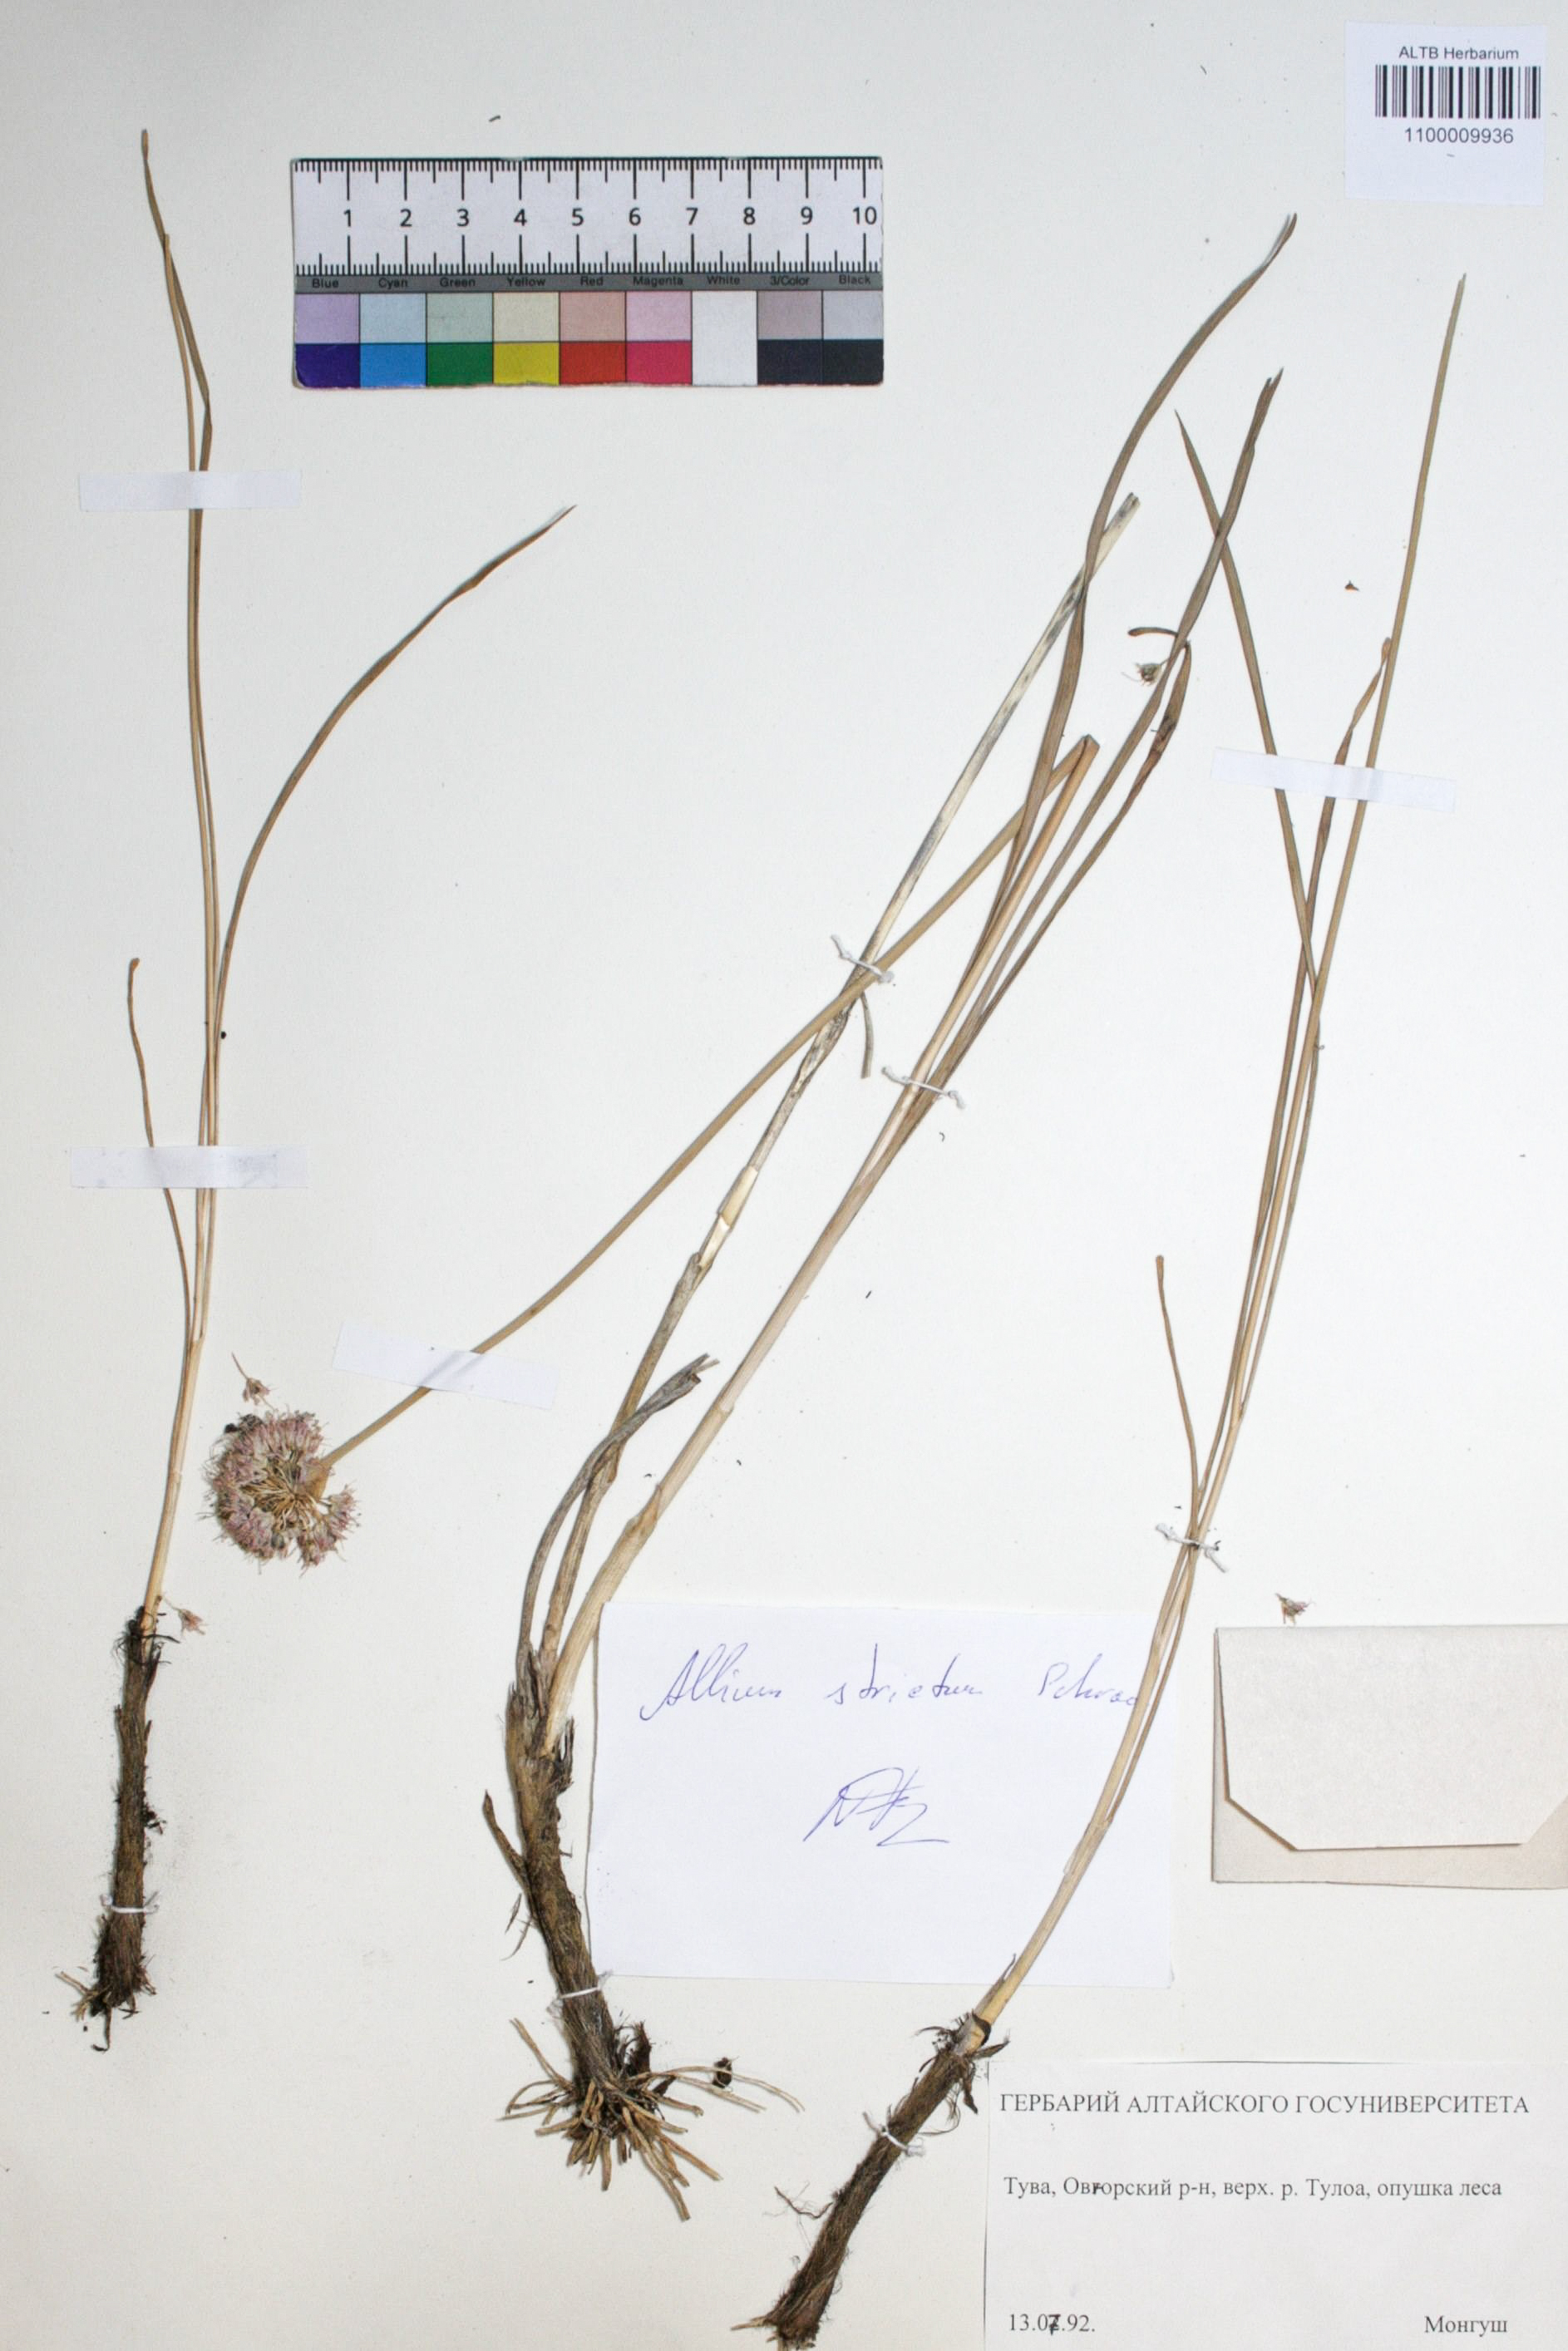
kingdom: Plantae
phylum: Tracheophyta
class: Liliopsida
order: Asparagales
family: Amaryllidaceae
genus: Allium
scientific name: Allium strictum
